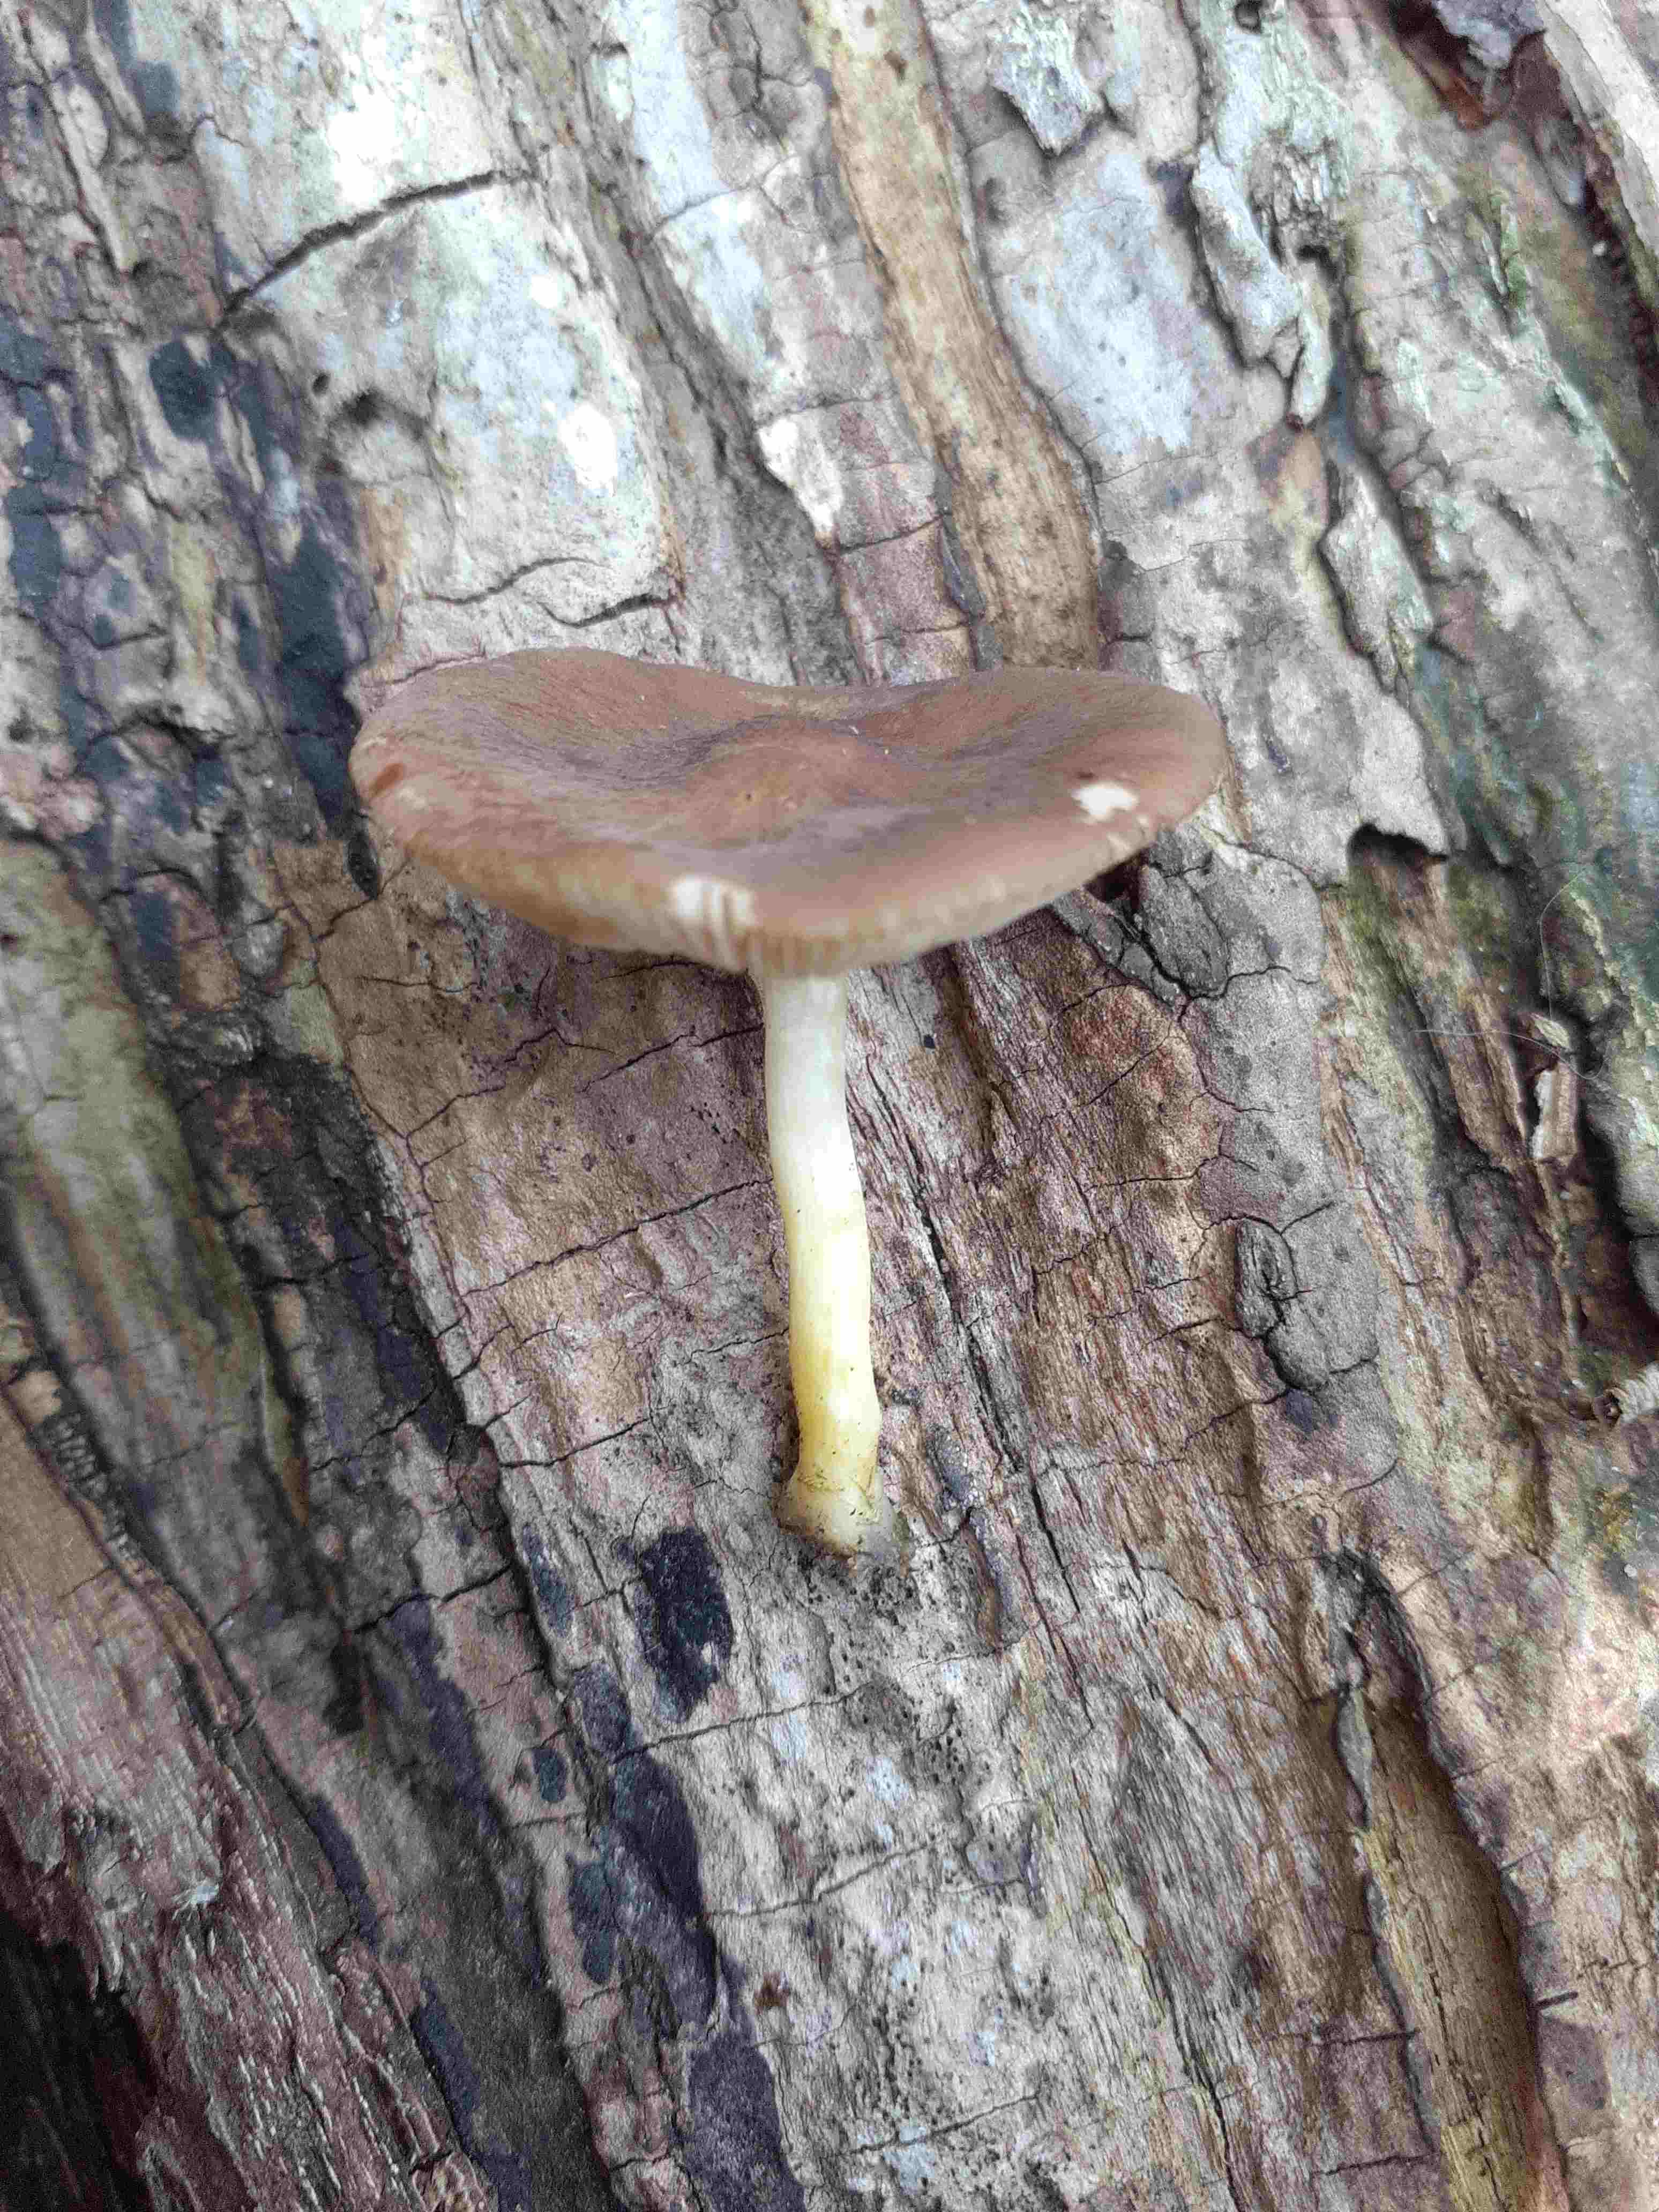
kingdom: Fungi
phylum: Basidiomycota
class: Agaricomycetes
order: Agaricales
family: Pluteaceae
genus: Pluteus
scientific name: Pluteus romellii
